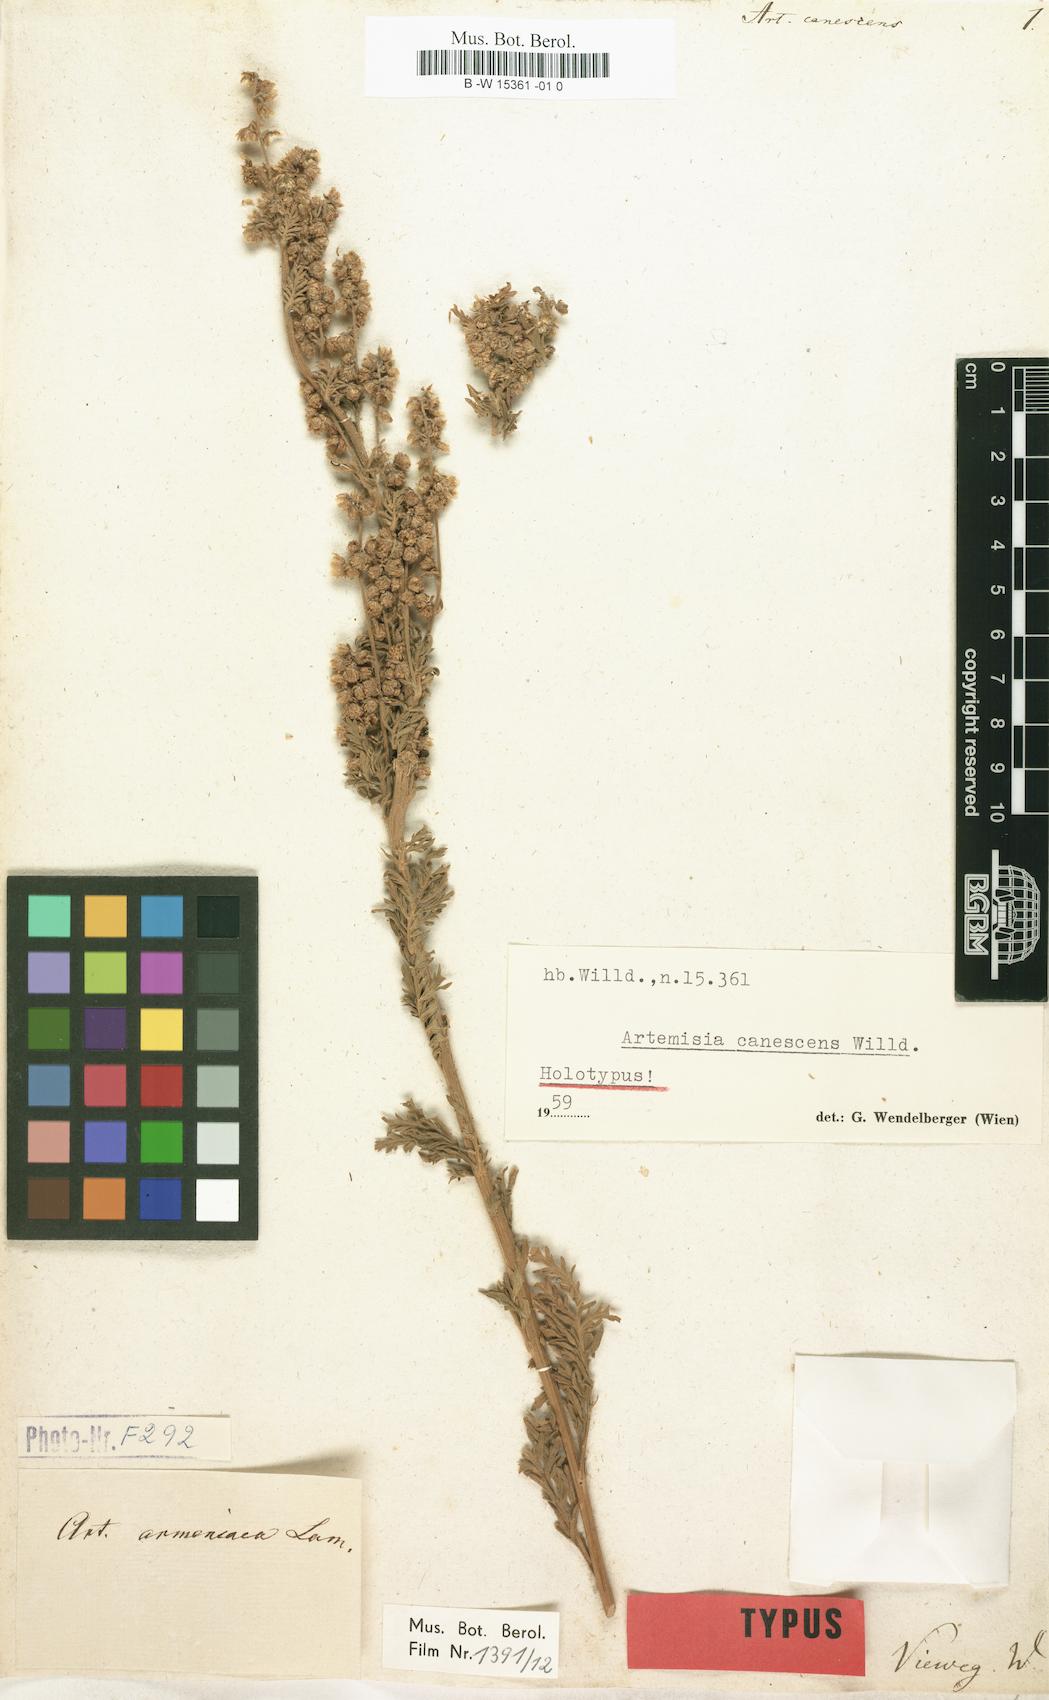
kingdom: Plantae
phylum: Tracheophyta
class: Magnoliopsida
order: Asterales
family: Asteraceae
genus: Artemisia
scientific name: Artemisia armeniaca
